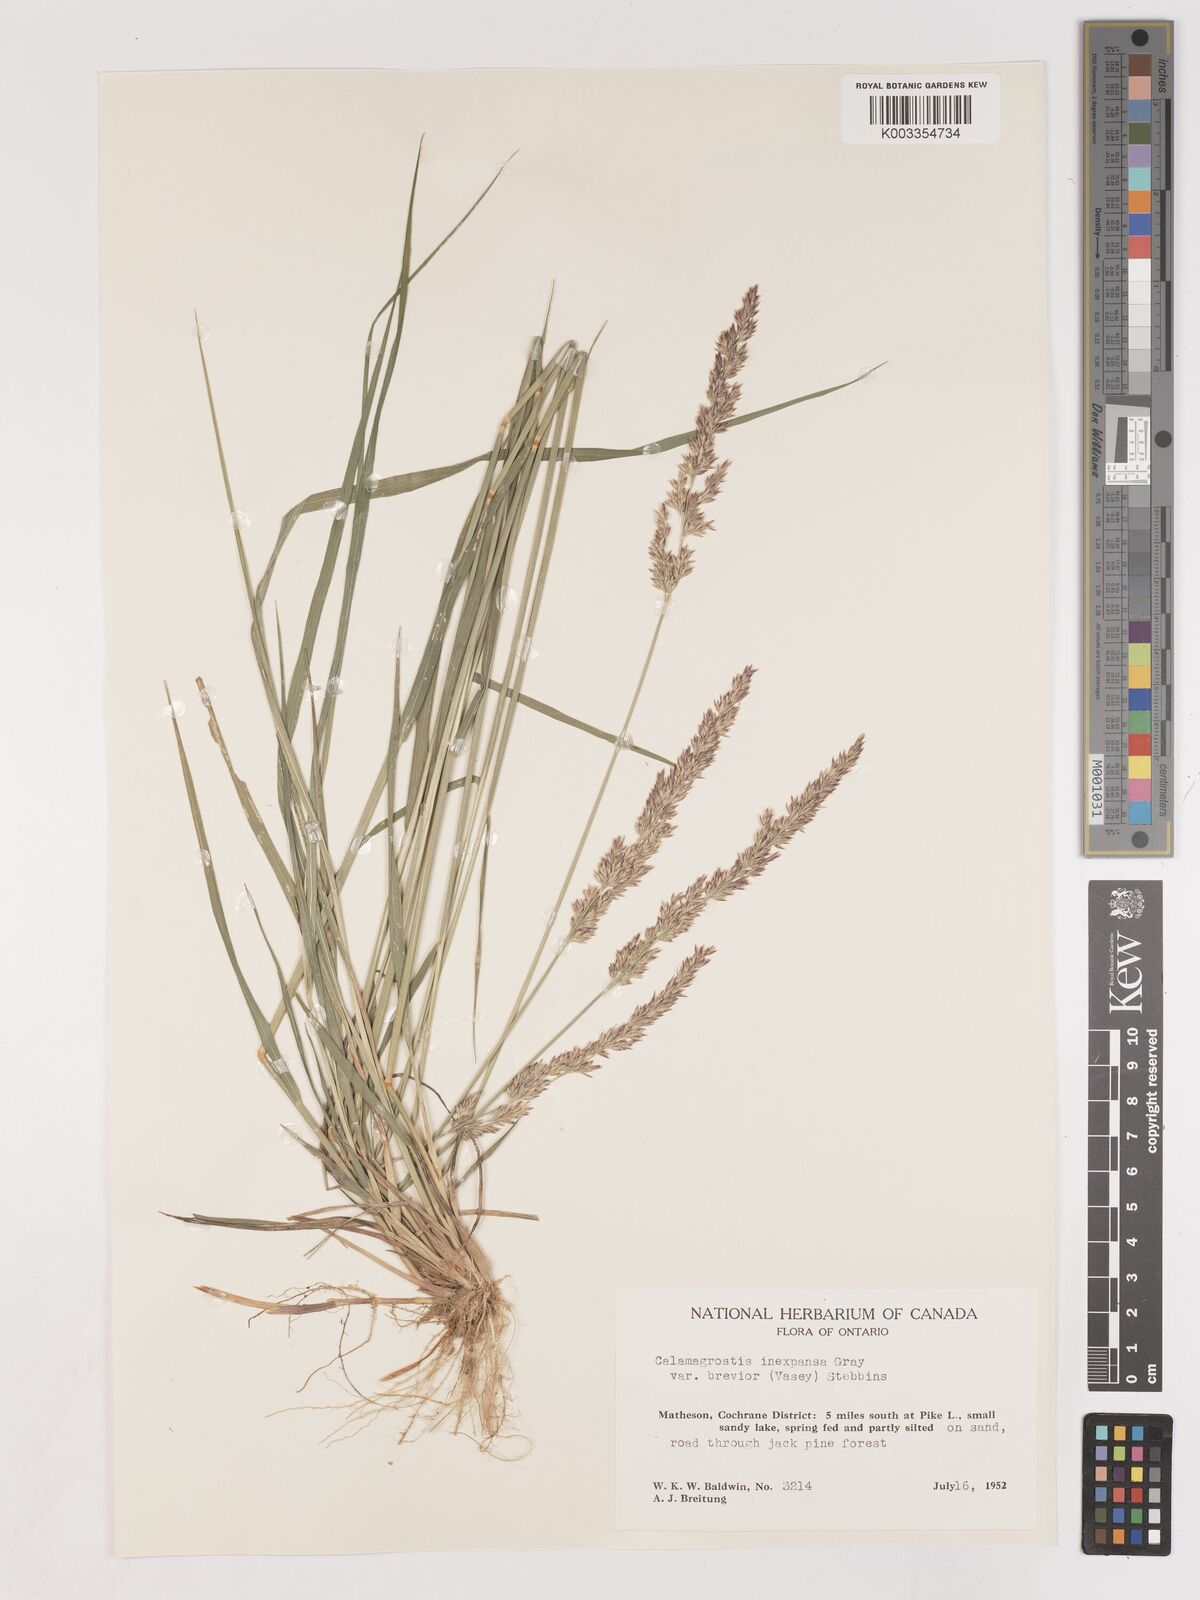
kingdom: Plantae
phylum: Tracheophyta
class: Liliopsida
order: Poales
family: Poaceae
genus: Cinnagrostis
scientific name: Cinnagrostis recta
